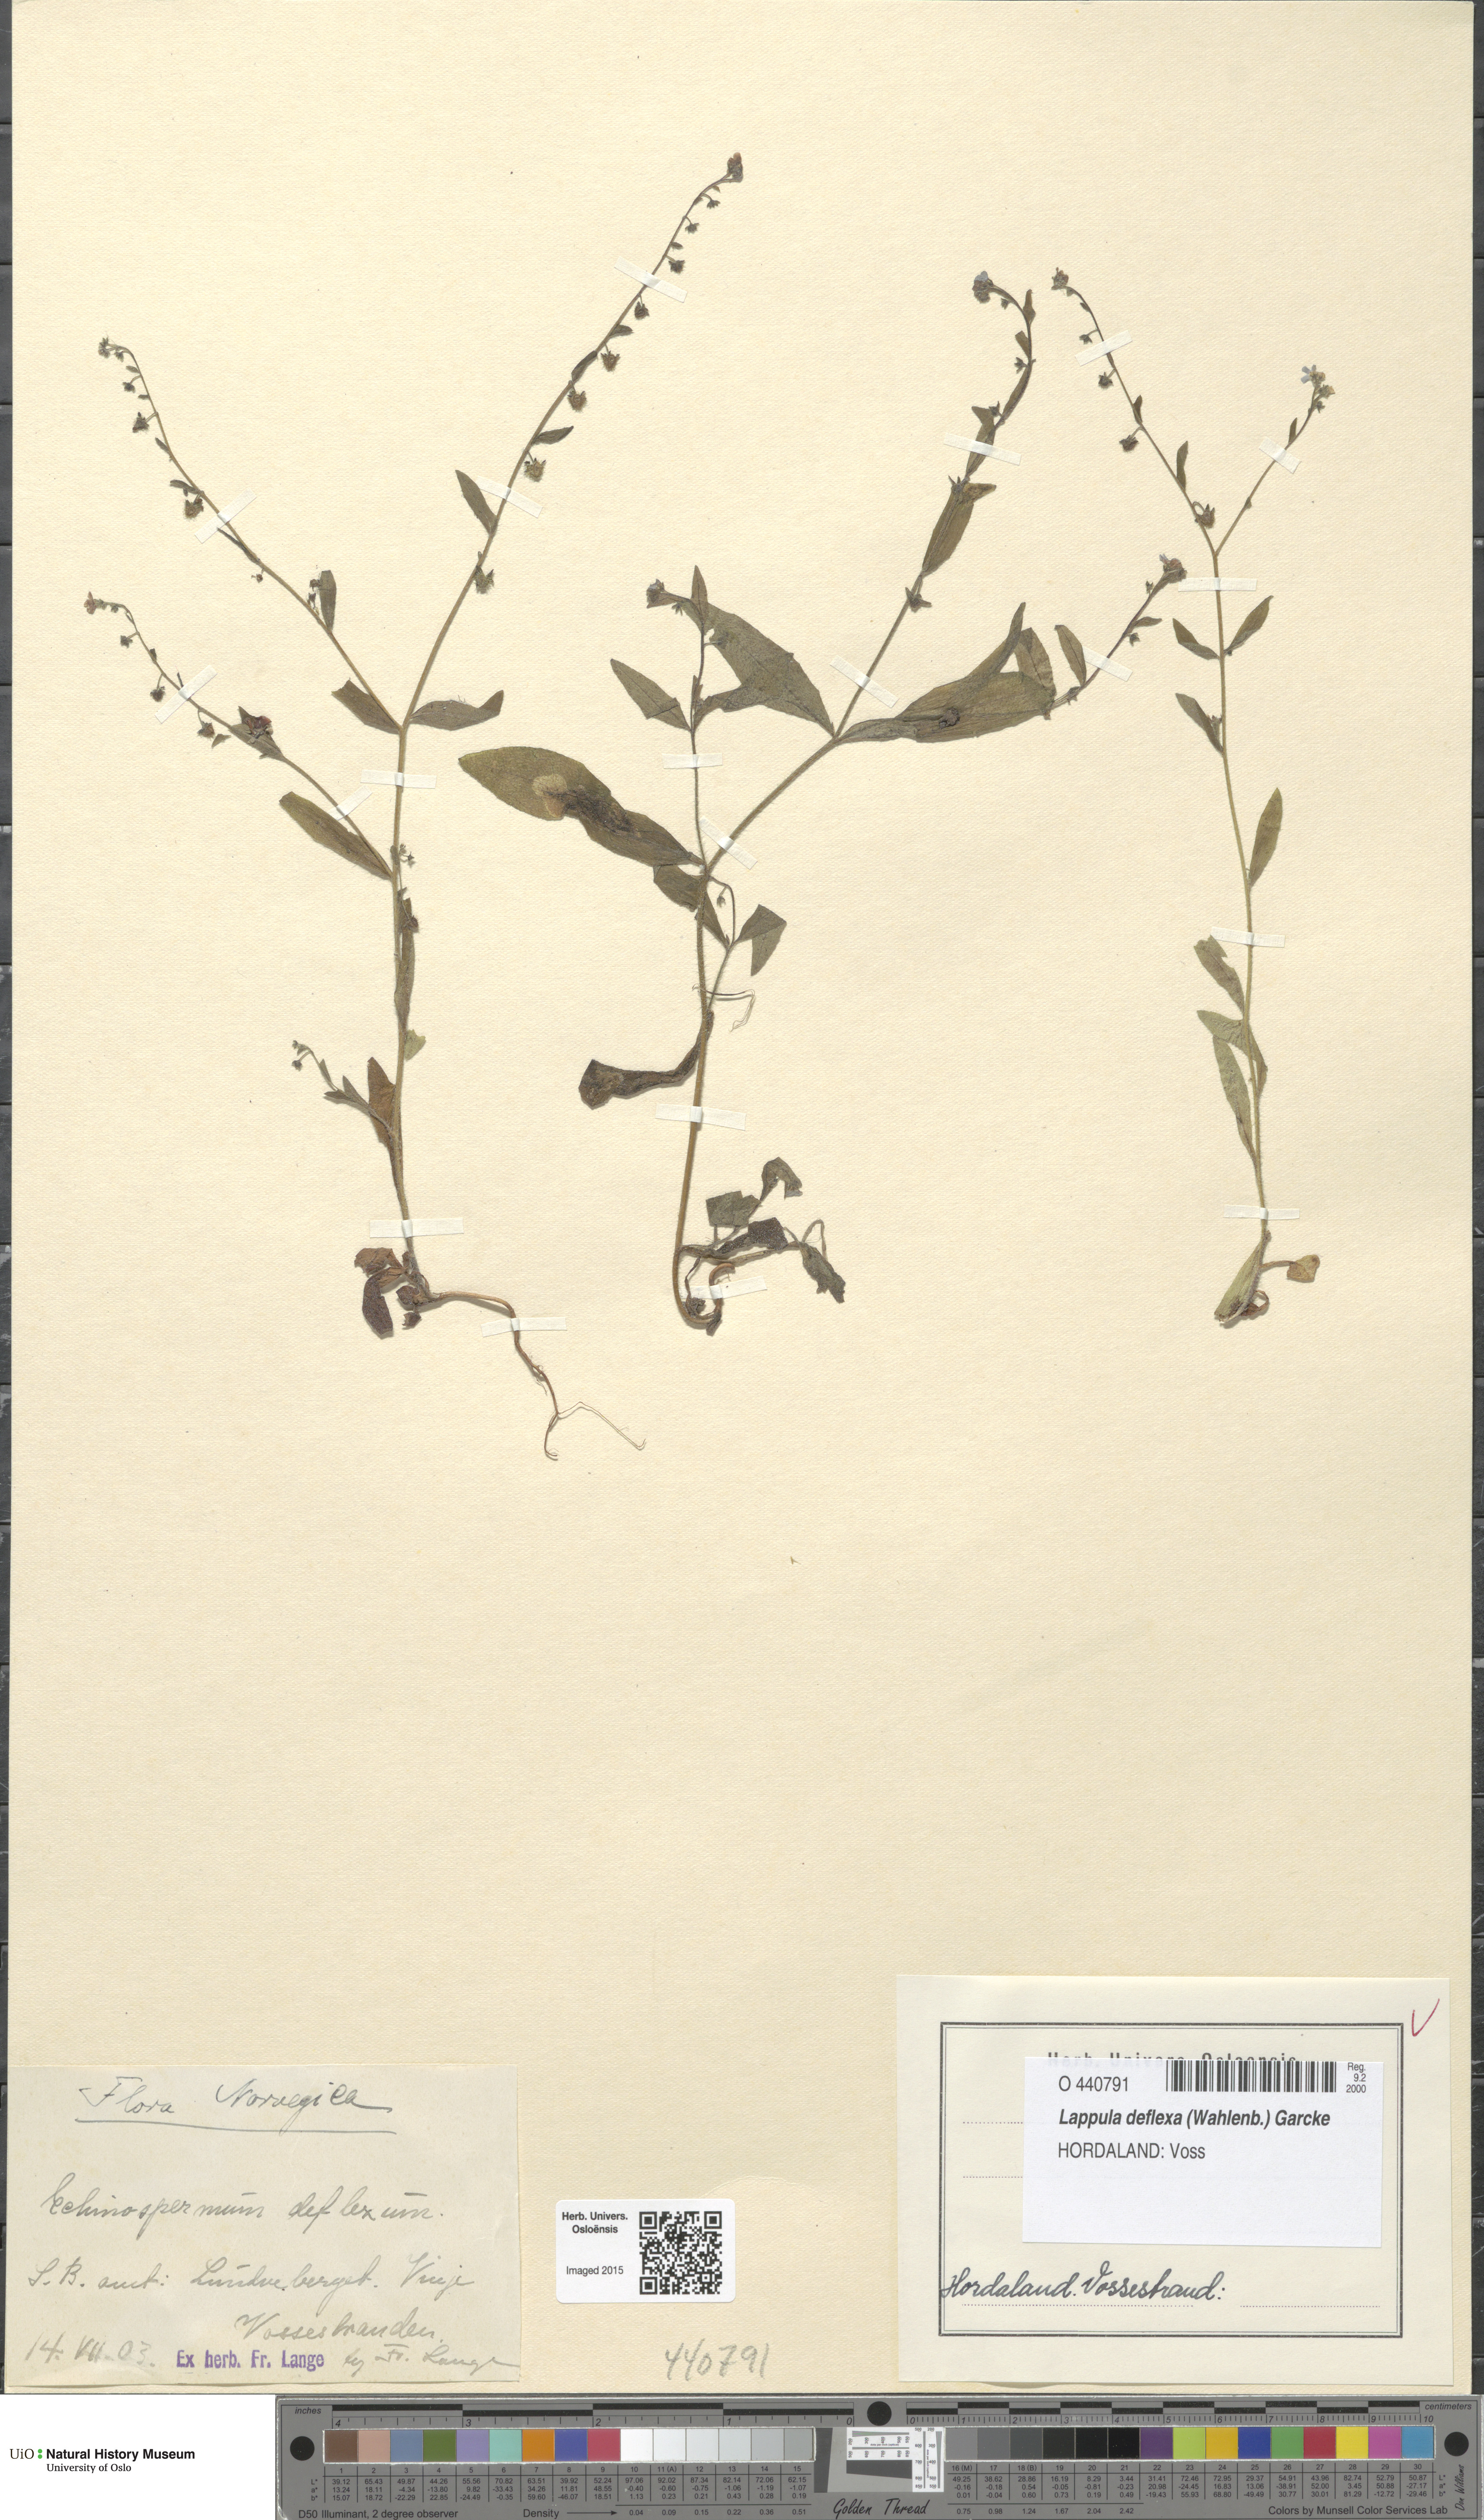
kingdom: Plantae
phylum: Tracheophyta
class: Magnoliopsida
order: Boraginales
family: Boraginaceae
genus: Hackelia
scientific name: Hackelia deflexa
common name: Nodding stickseed
